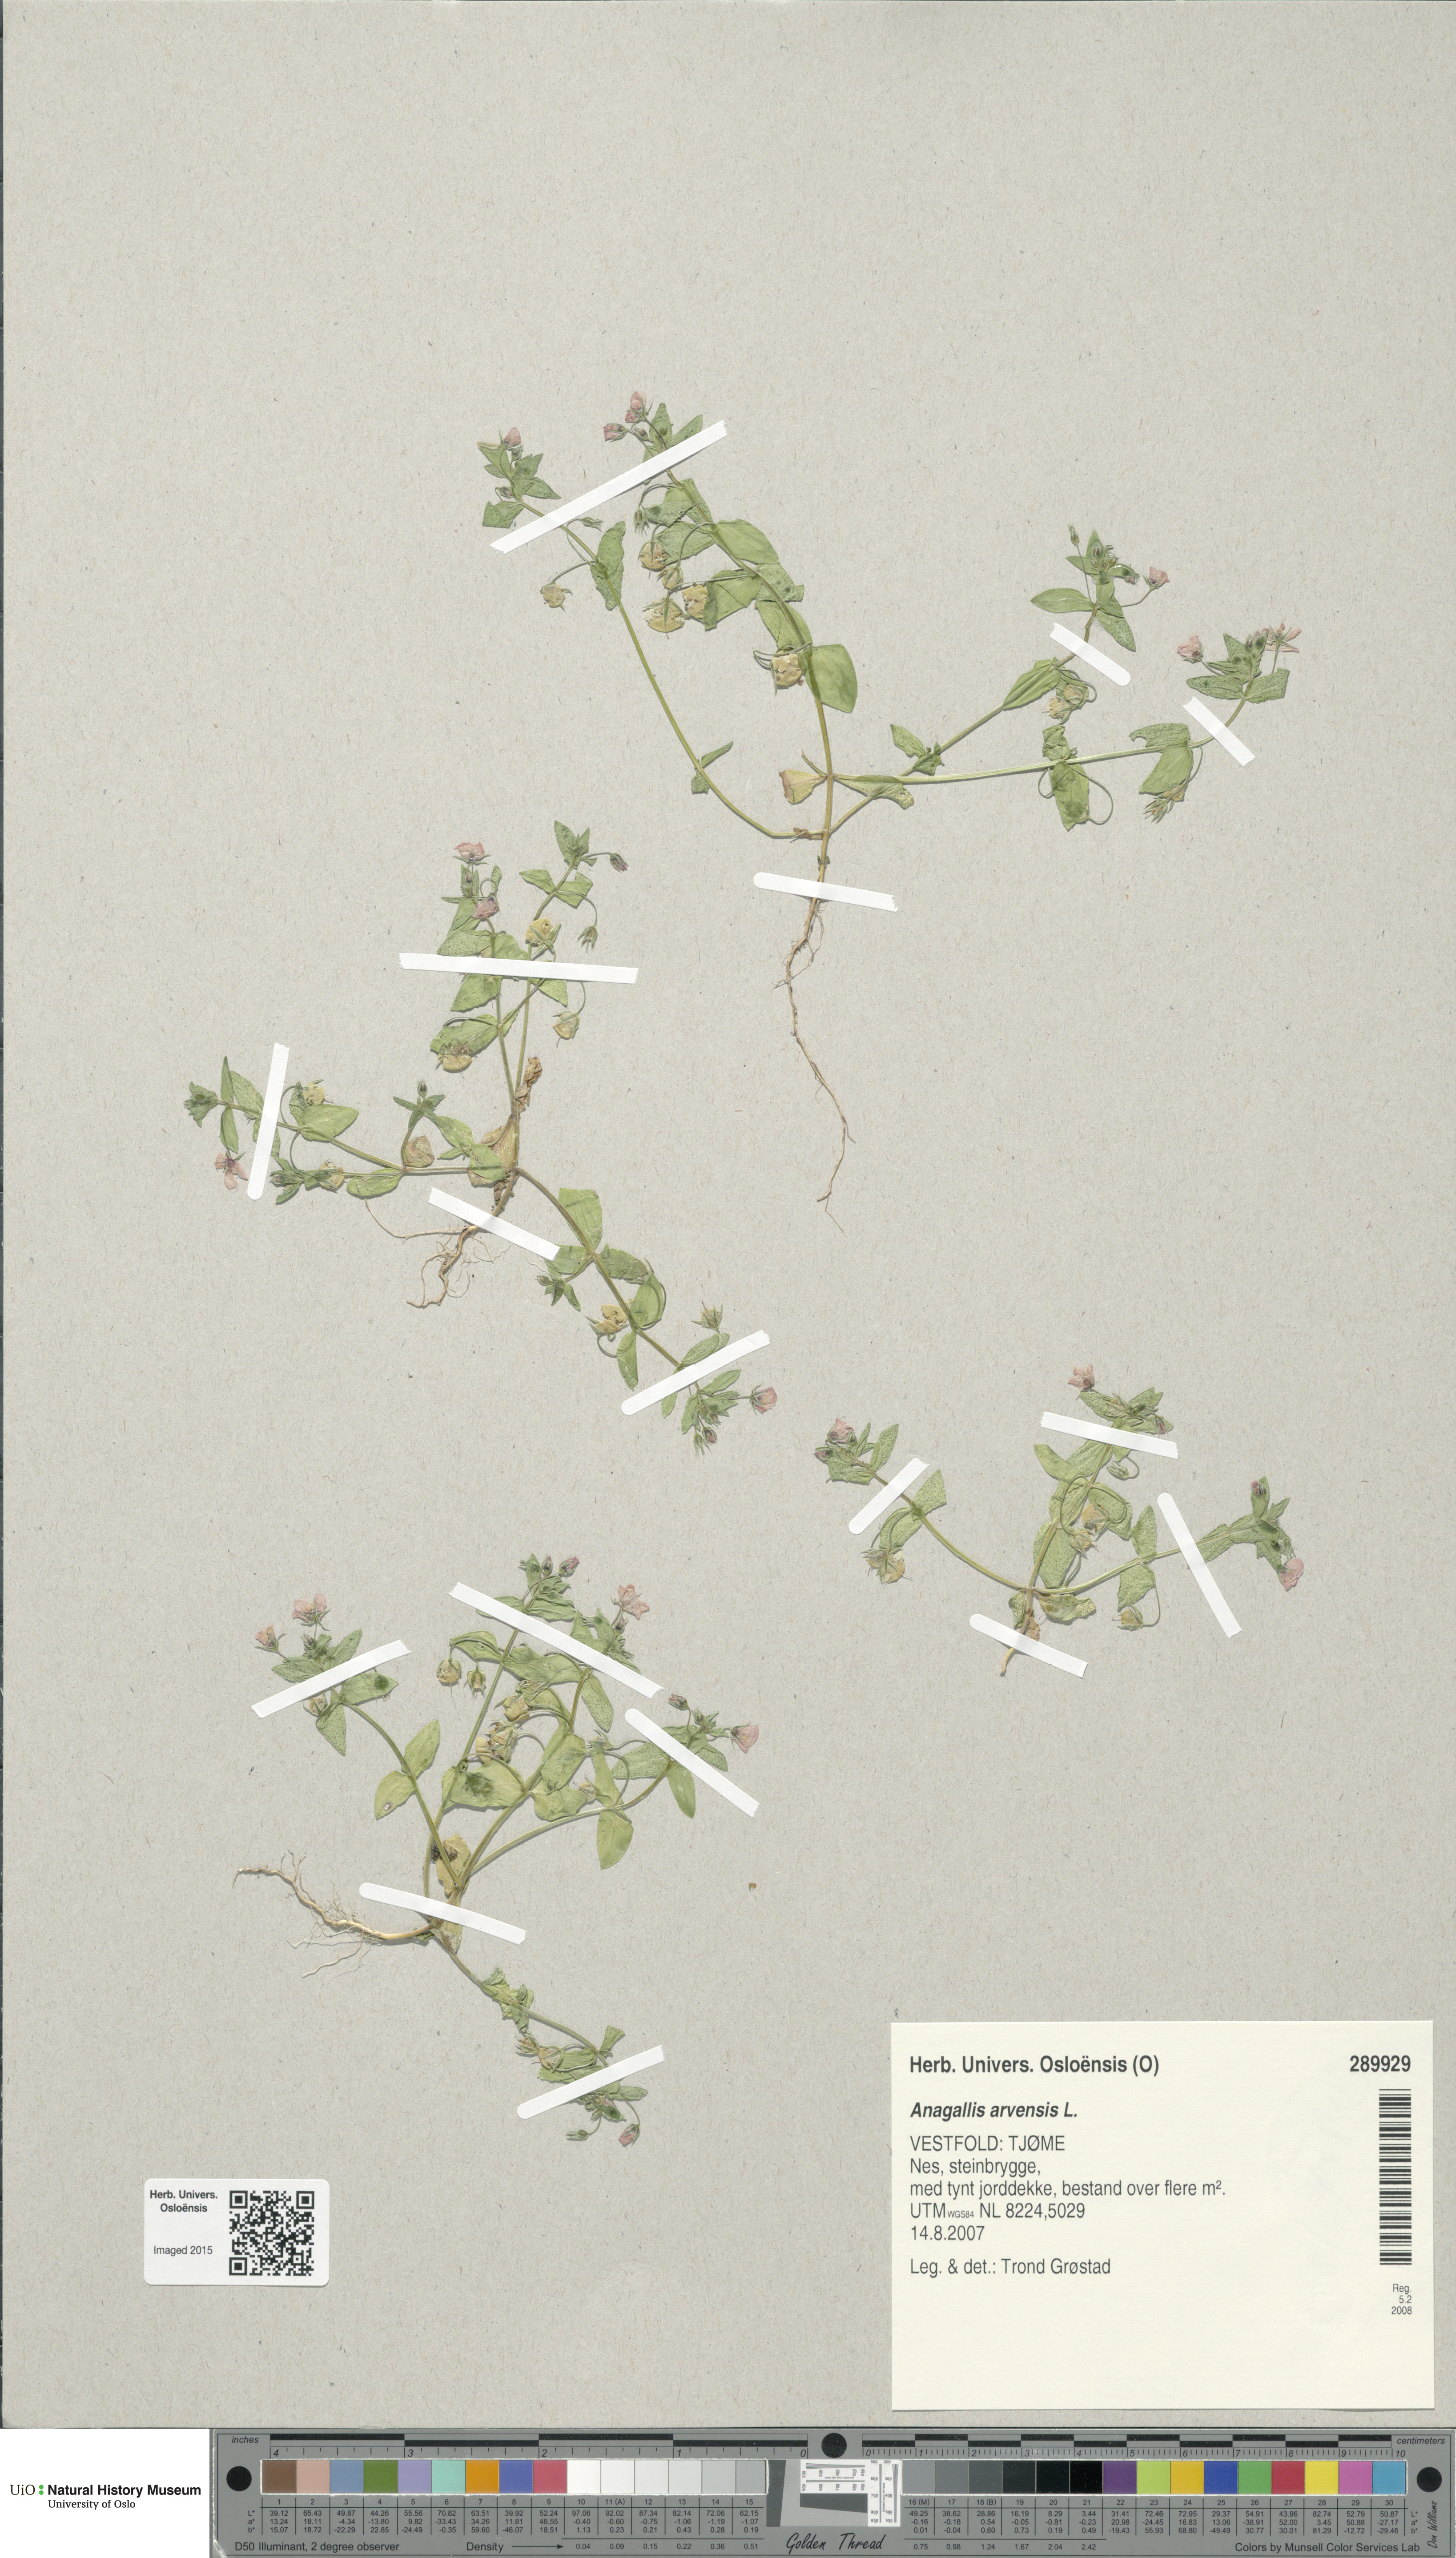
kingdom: Plantae
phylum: Tracheophyta
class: Magnoliopsida
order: Ericales
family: Primulaceae
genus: Lysimachia
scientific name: Lysimachia arvensis
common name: Scarlet pimpernel
